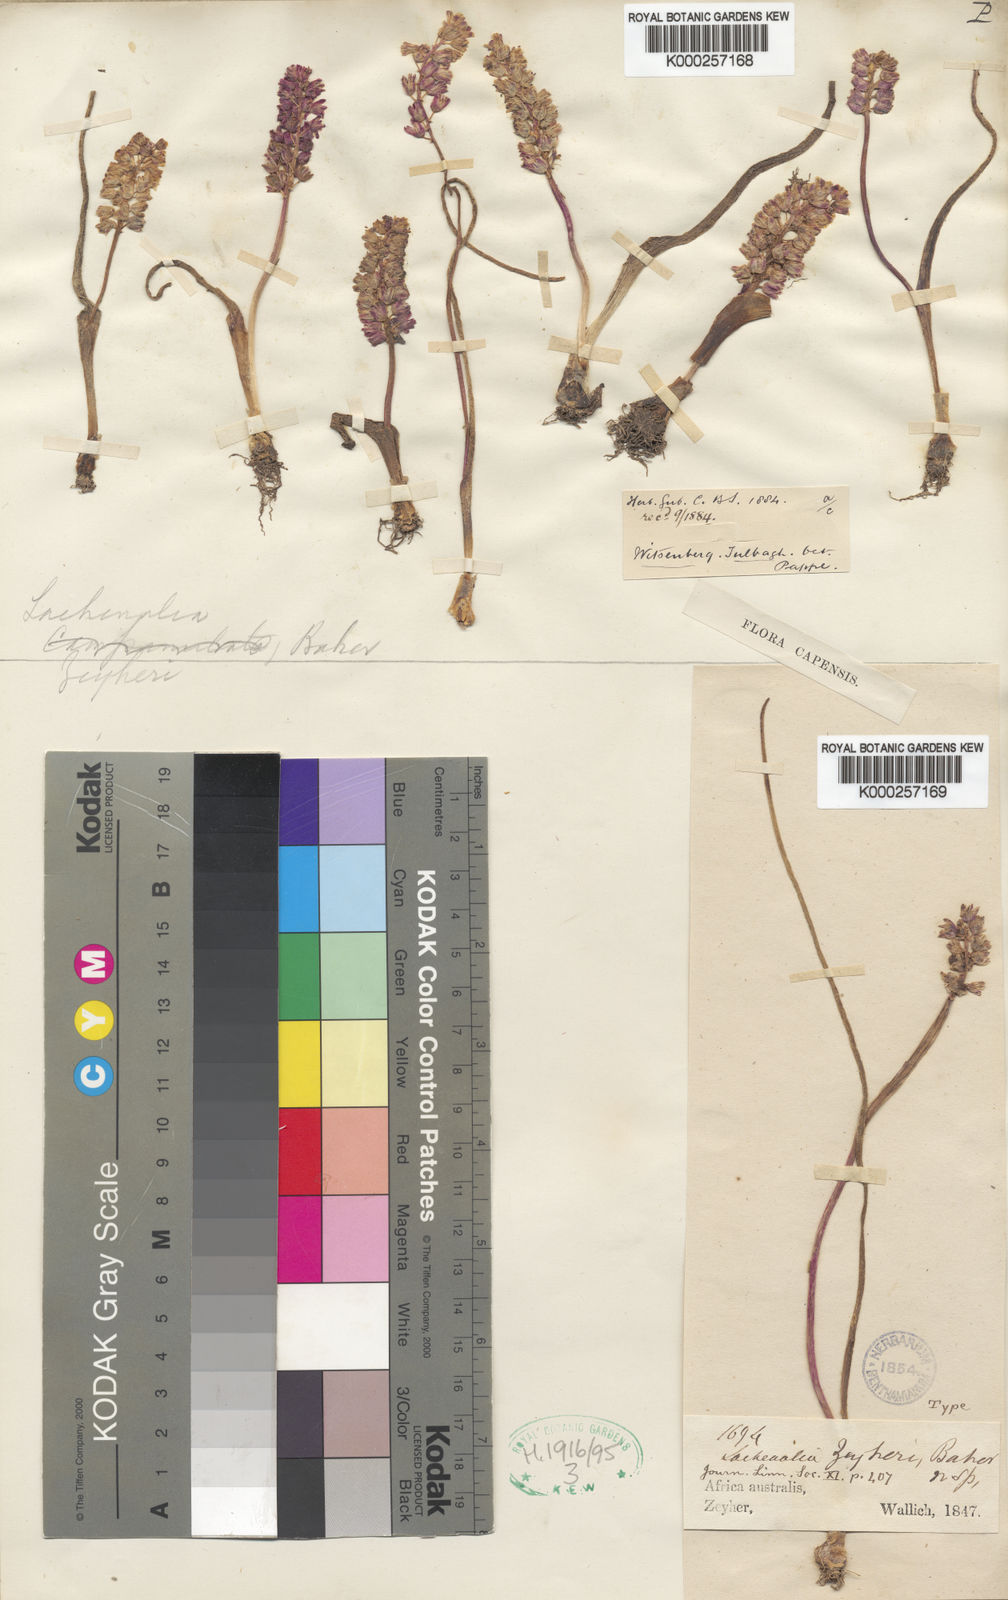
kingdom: Plantae
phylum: Tracheophyta
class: Liliopsida
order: Asparagales
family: Asparagaceae
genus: Lachenalia
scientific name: Lachenalia zeyheri
